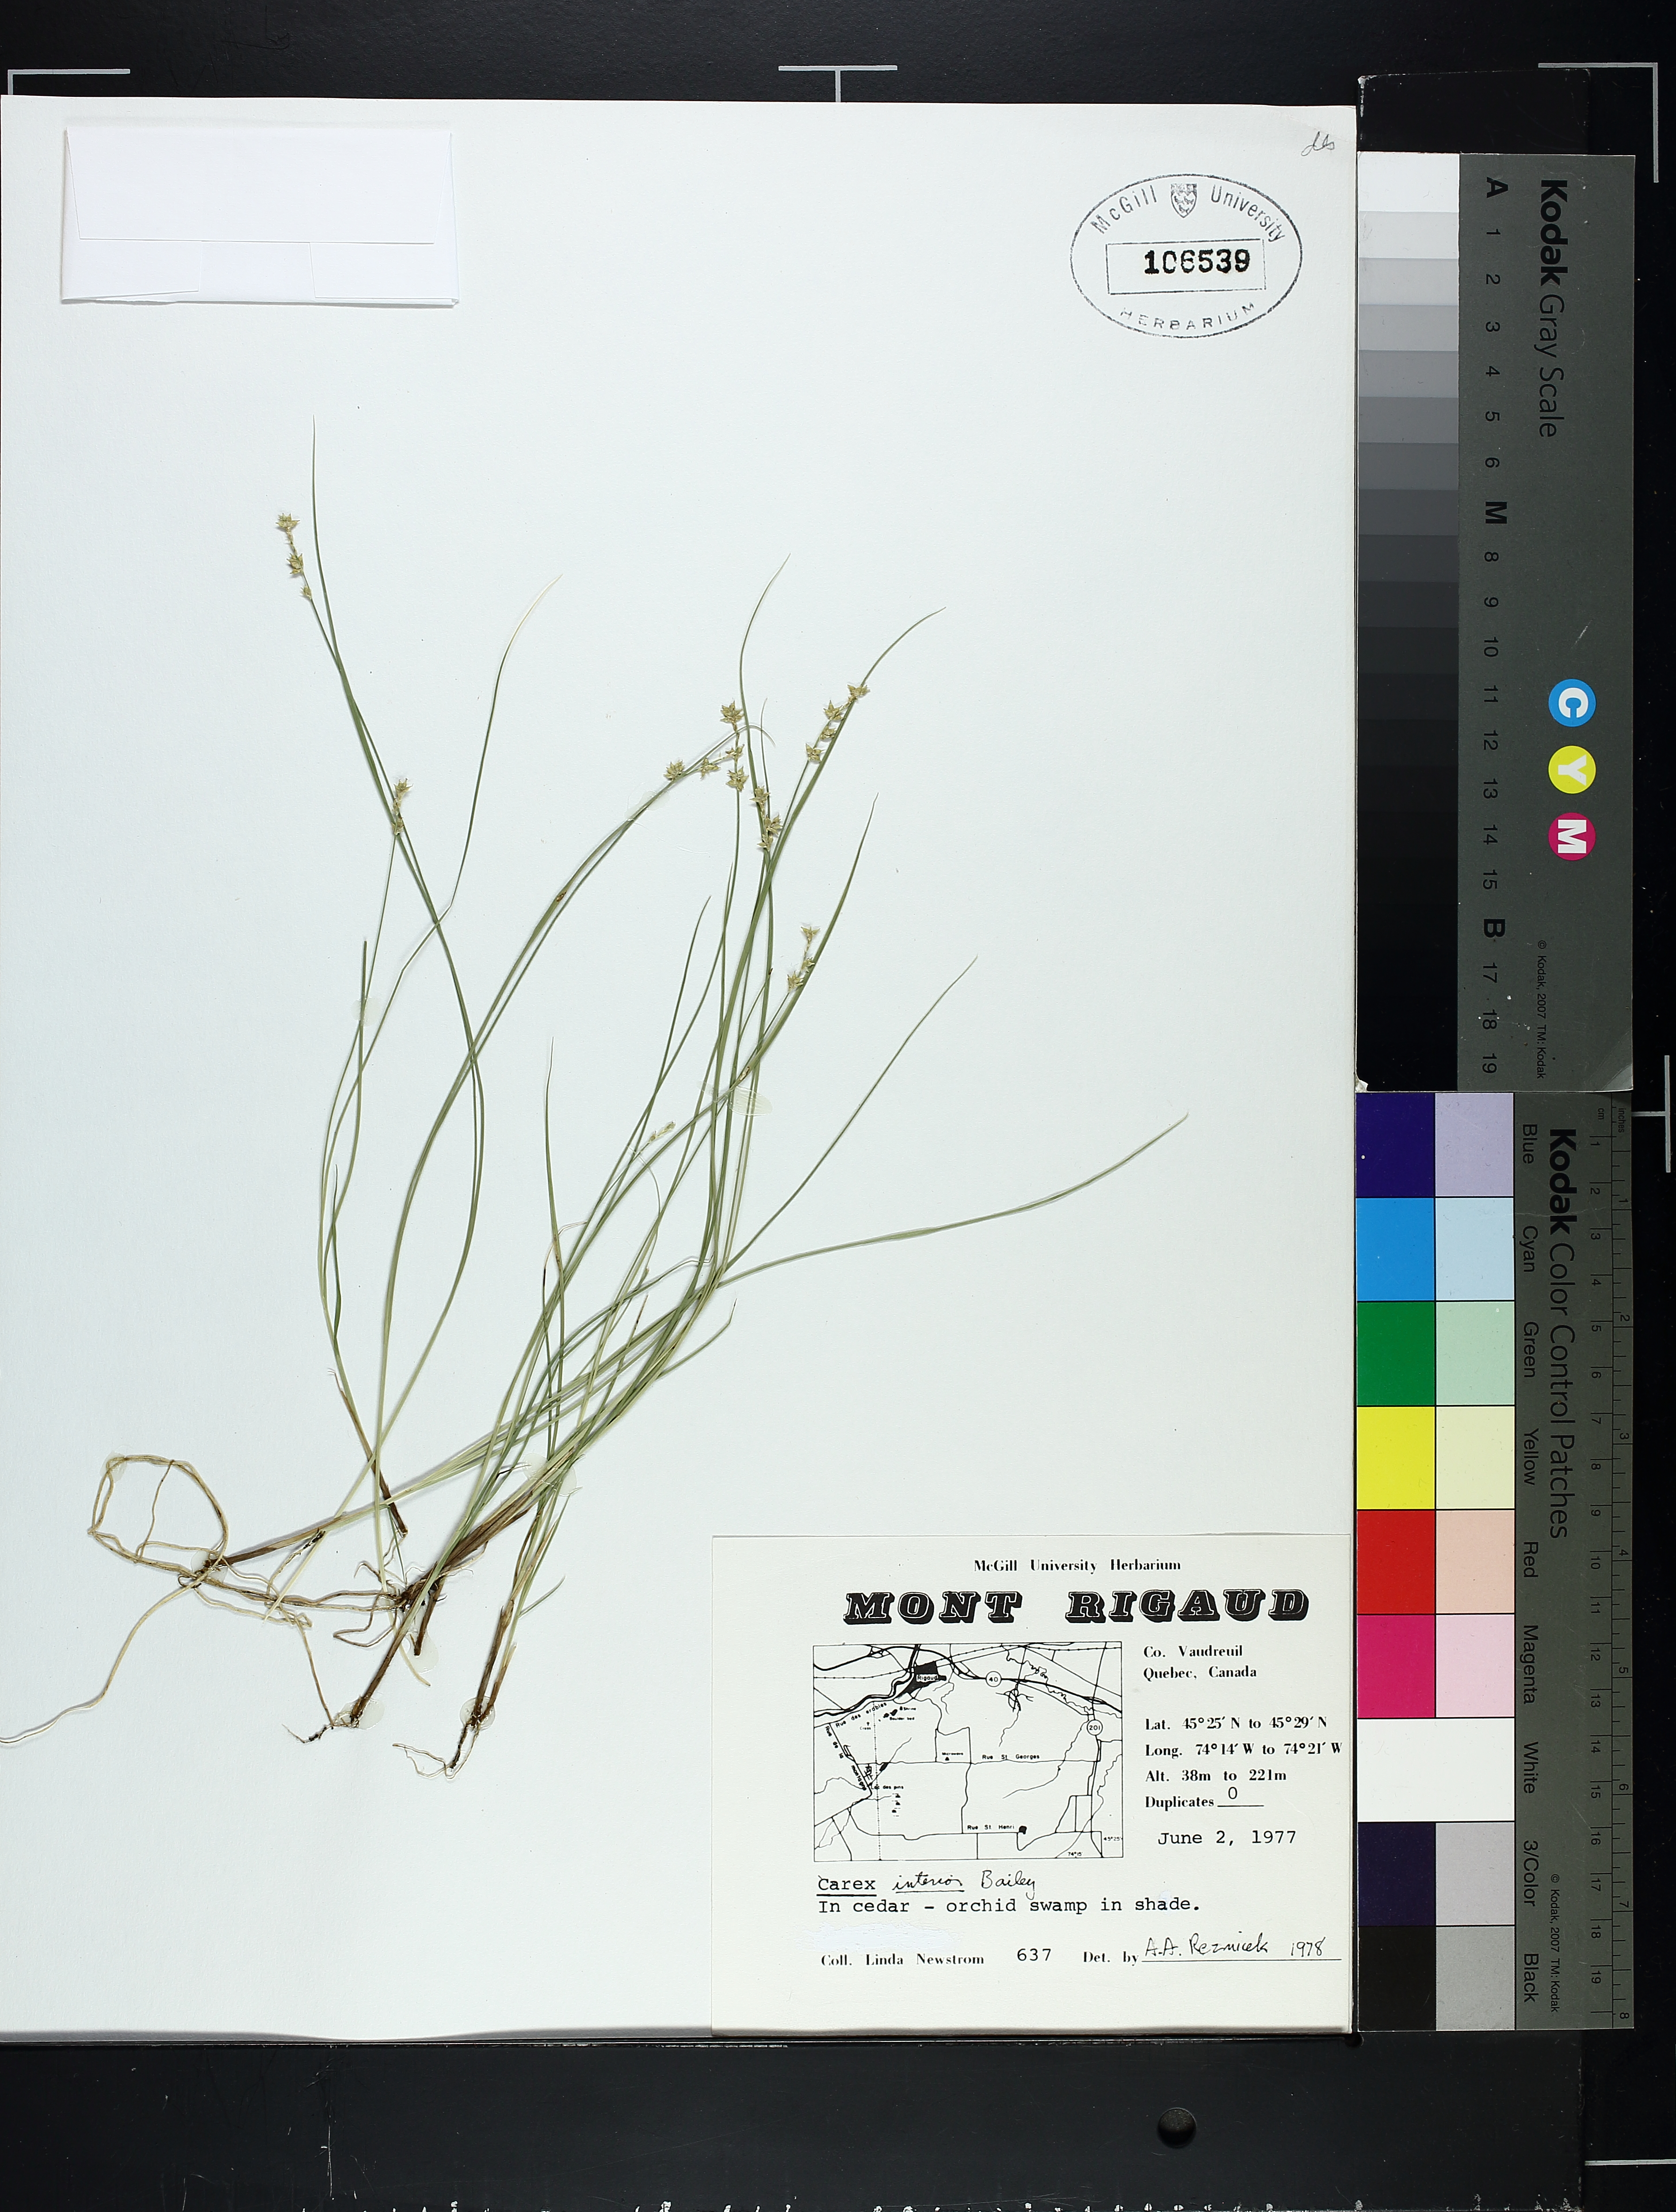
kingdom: Plantae
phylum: Tracheophyta
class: Liliopsida
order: Poales
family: Cyperaceae
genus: Carex
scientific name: Carex interior
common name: Inland sedge
